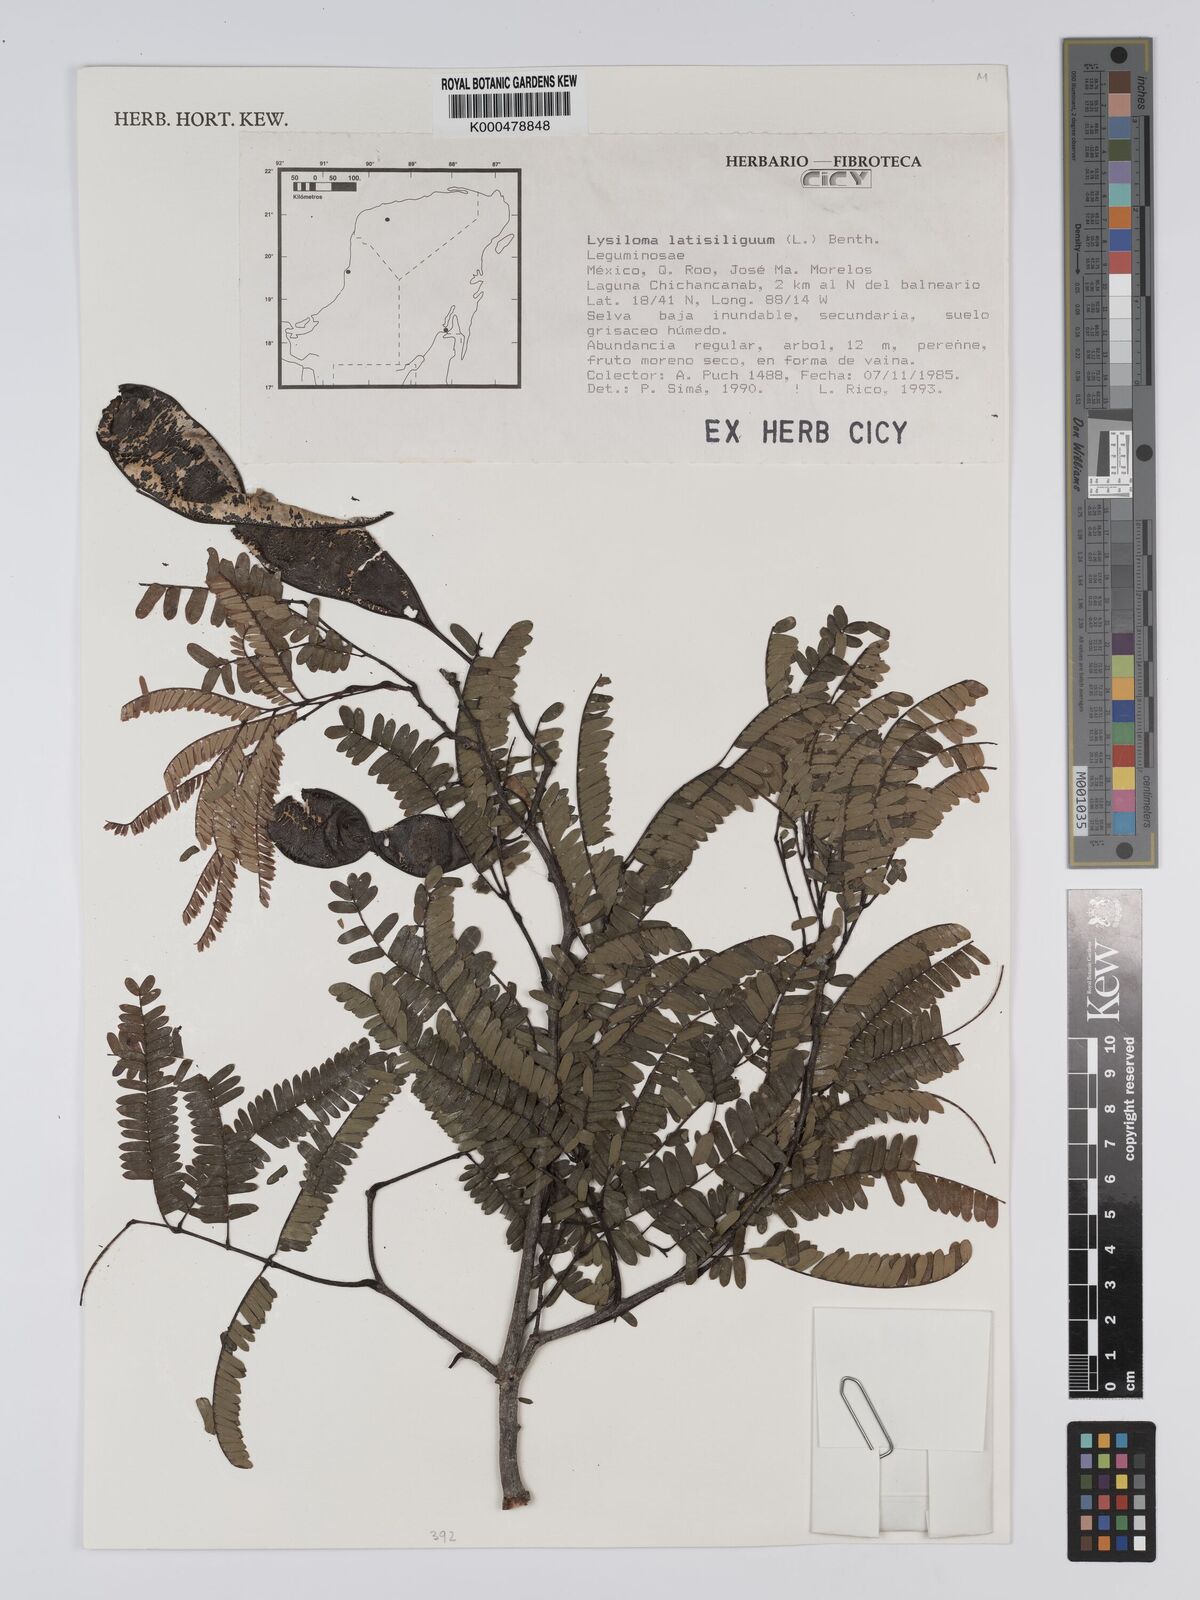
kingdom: Plantae
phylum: Tracheophyta
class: Magnoliopsida
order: Fabales
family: Fabaceae
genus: Lysiloma
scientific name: Lysiloma latisiliquum
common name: Wild tamarind
